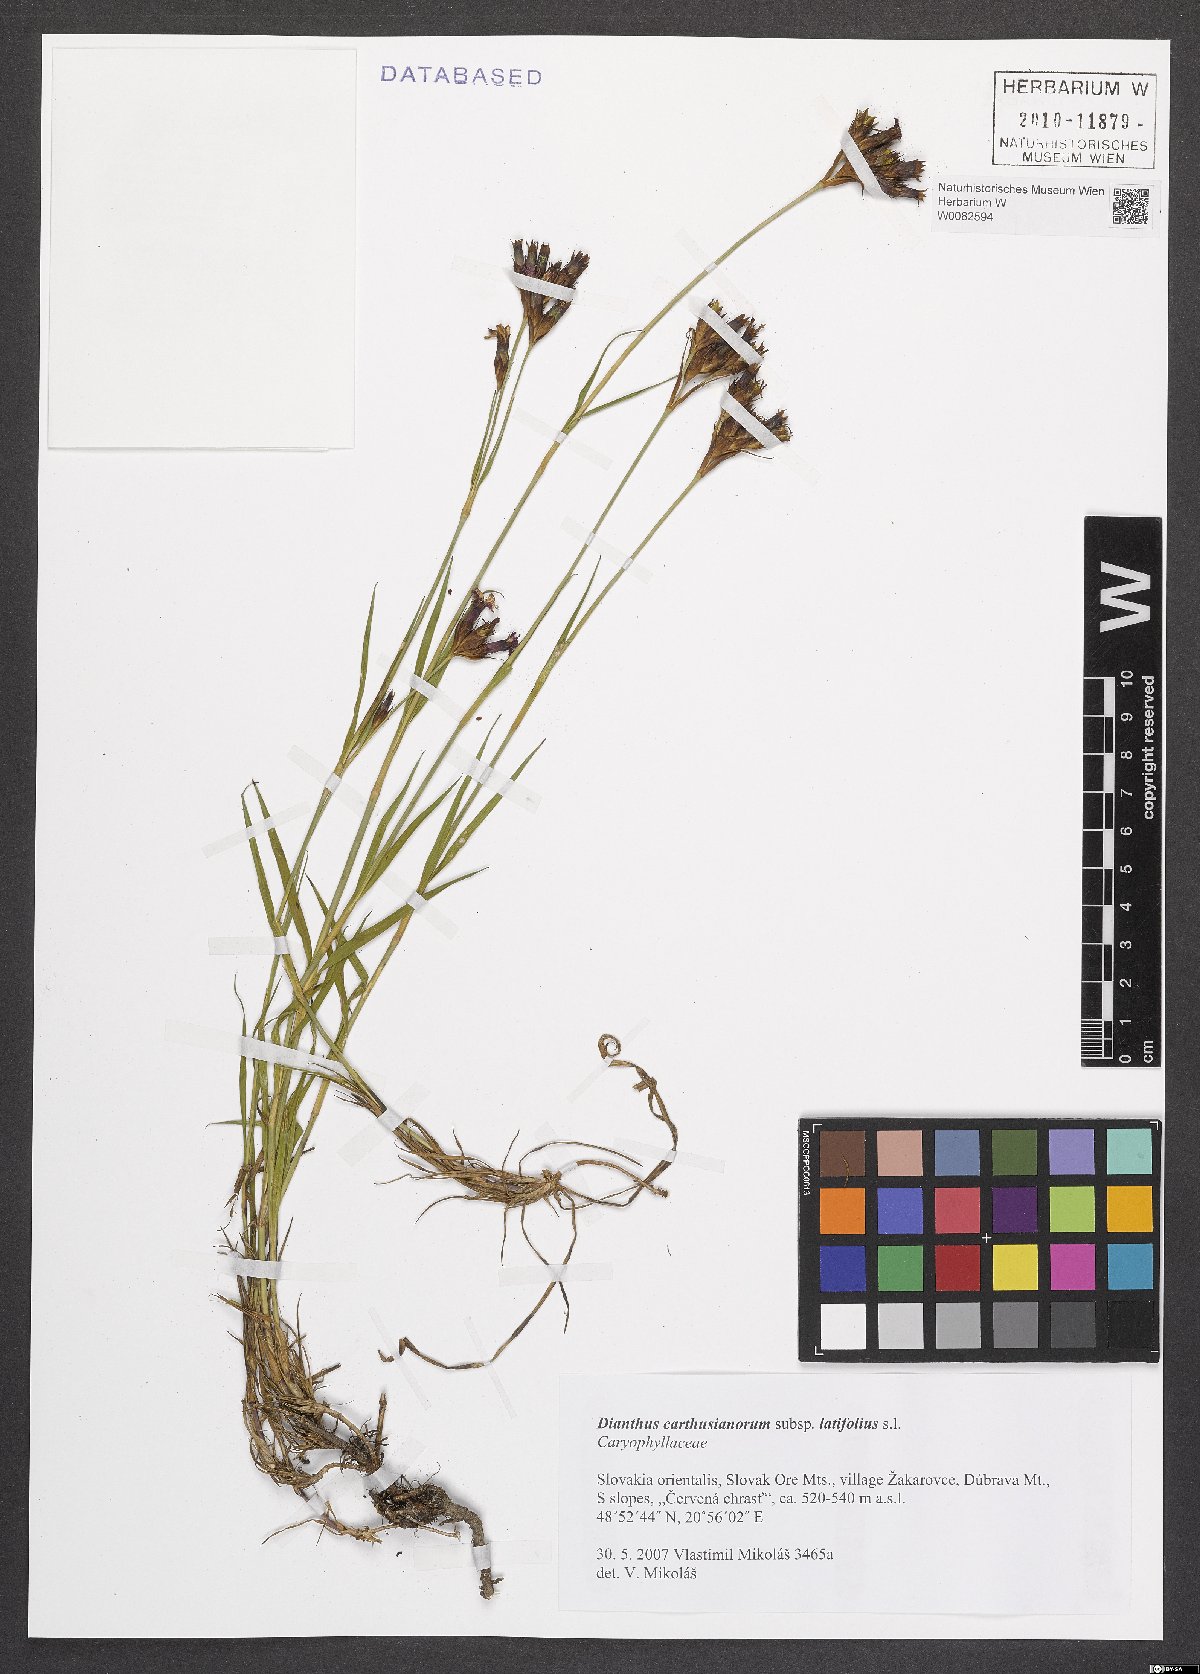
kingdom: Plantae
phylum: Tracheophyta
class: Magnoliopsida
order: Caryophyllales
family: Caryophyllaceae
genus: Dianthus
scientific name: Dianthus carthusianorum
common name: Carthusian pink
